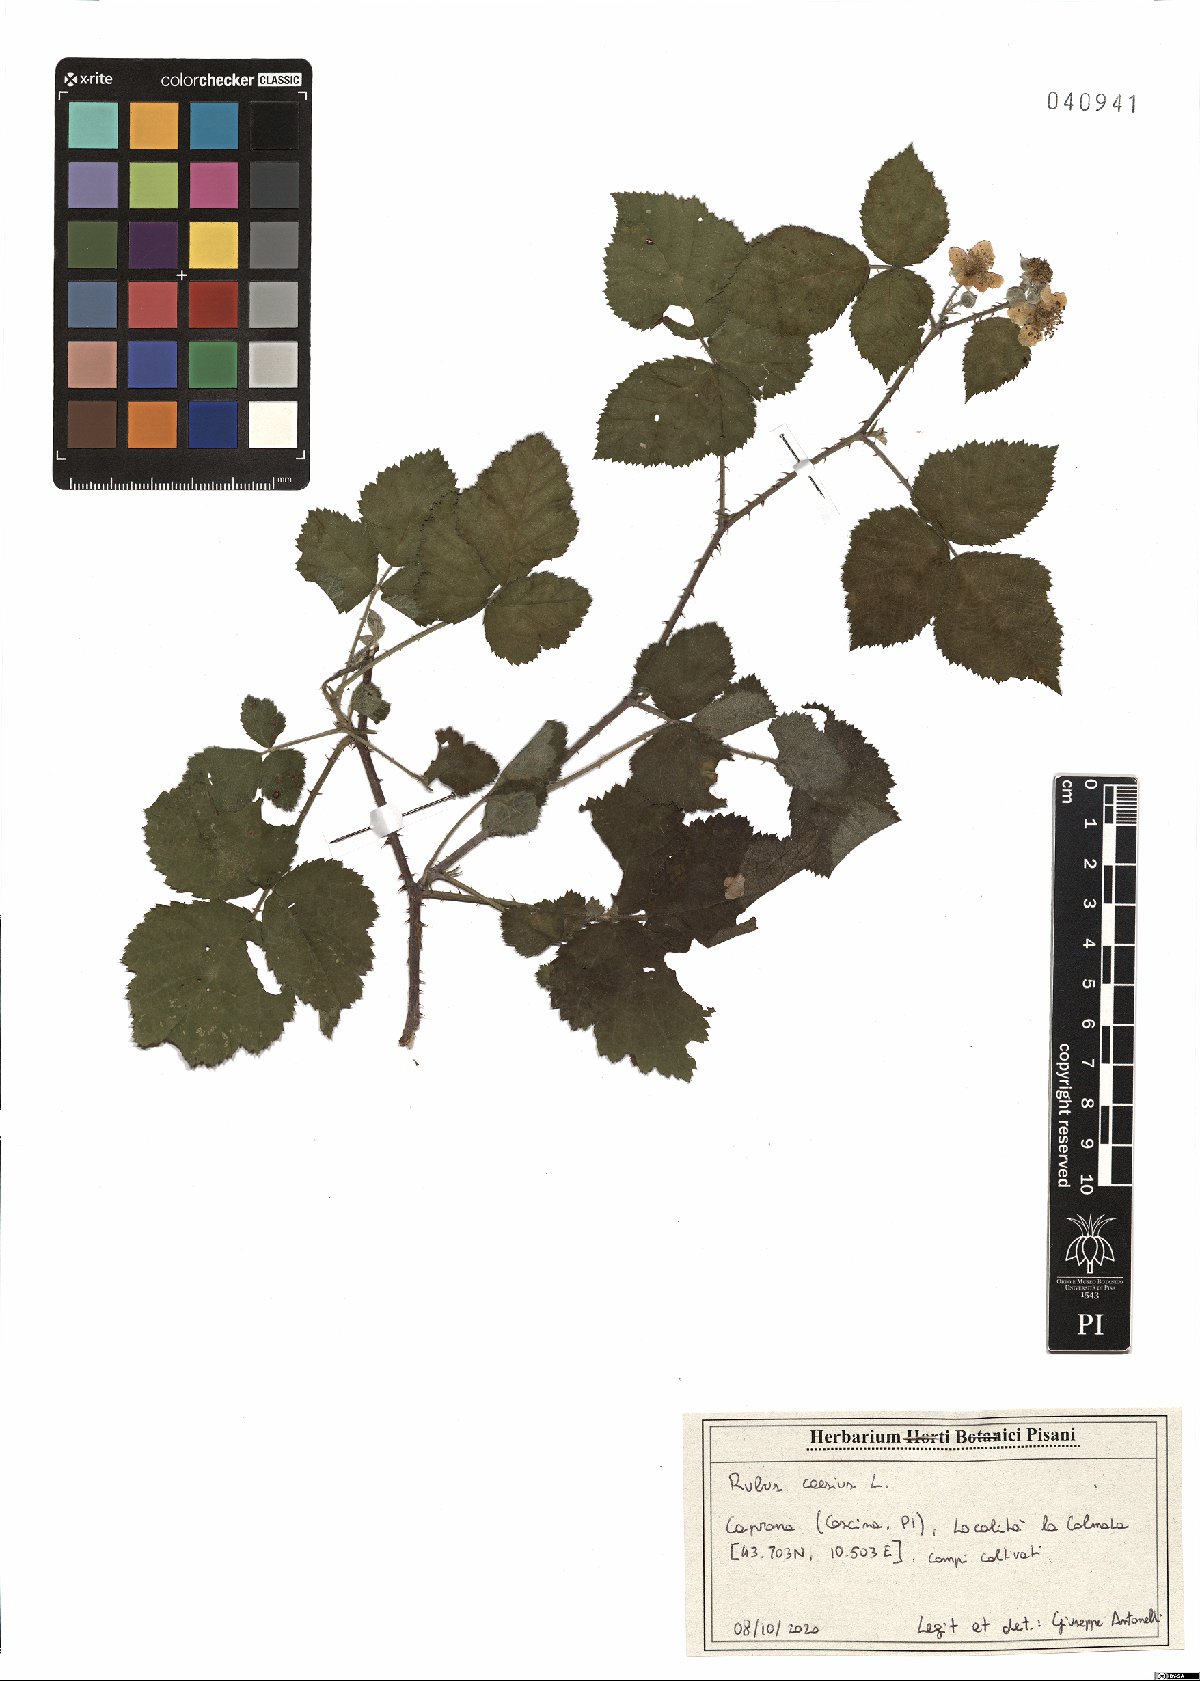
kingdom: Plantae
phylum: Tracheophyta
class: Magnoliopsida
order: Rosales
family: Rosaceae
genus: Rubus
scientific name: Rubus caesius
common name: Dewberry
